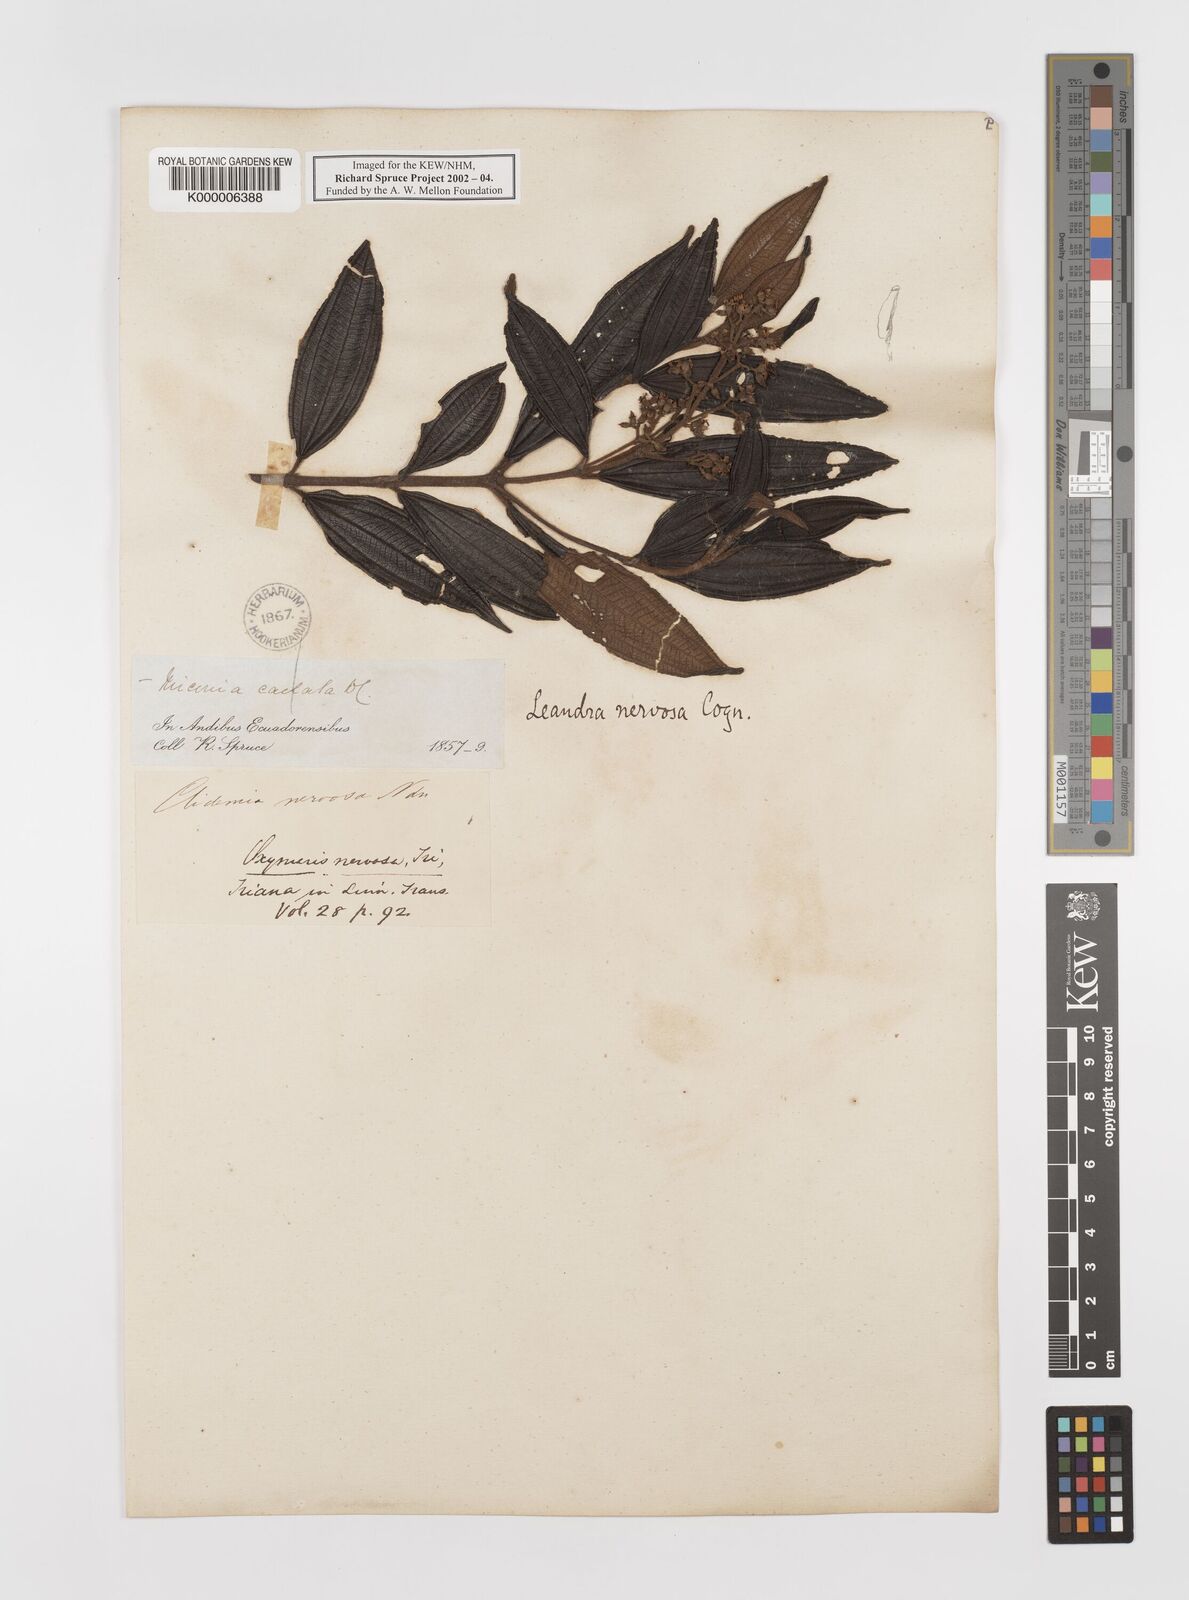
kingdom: Plantae
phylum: Tracheophyta
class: Magnoliopsida
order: Myrtales
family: Melastomataceae
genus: Miconia
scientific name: Miconia nervosissima
